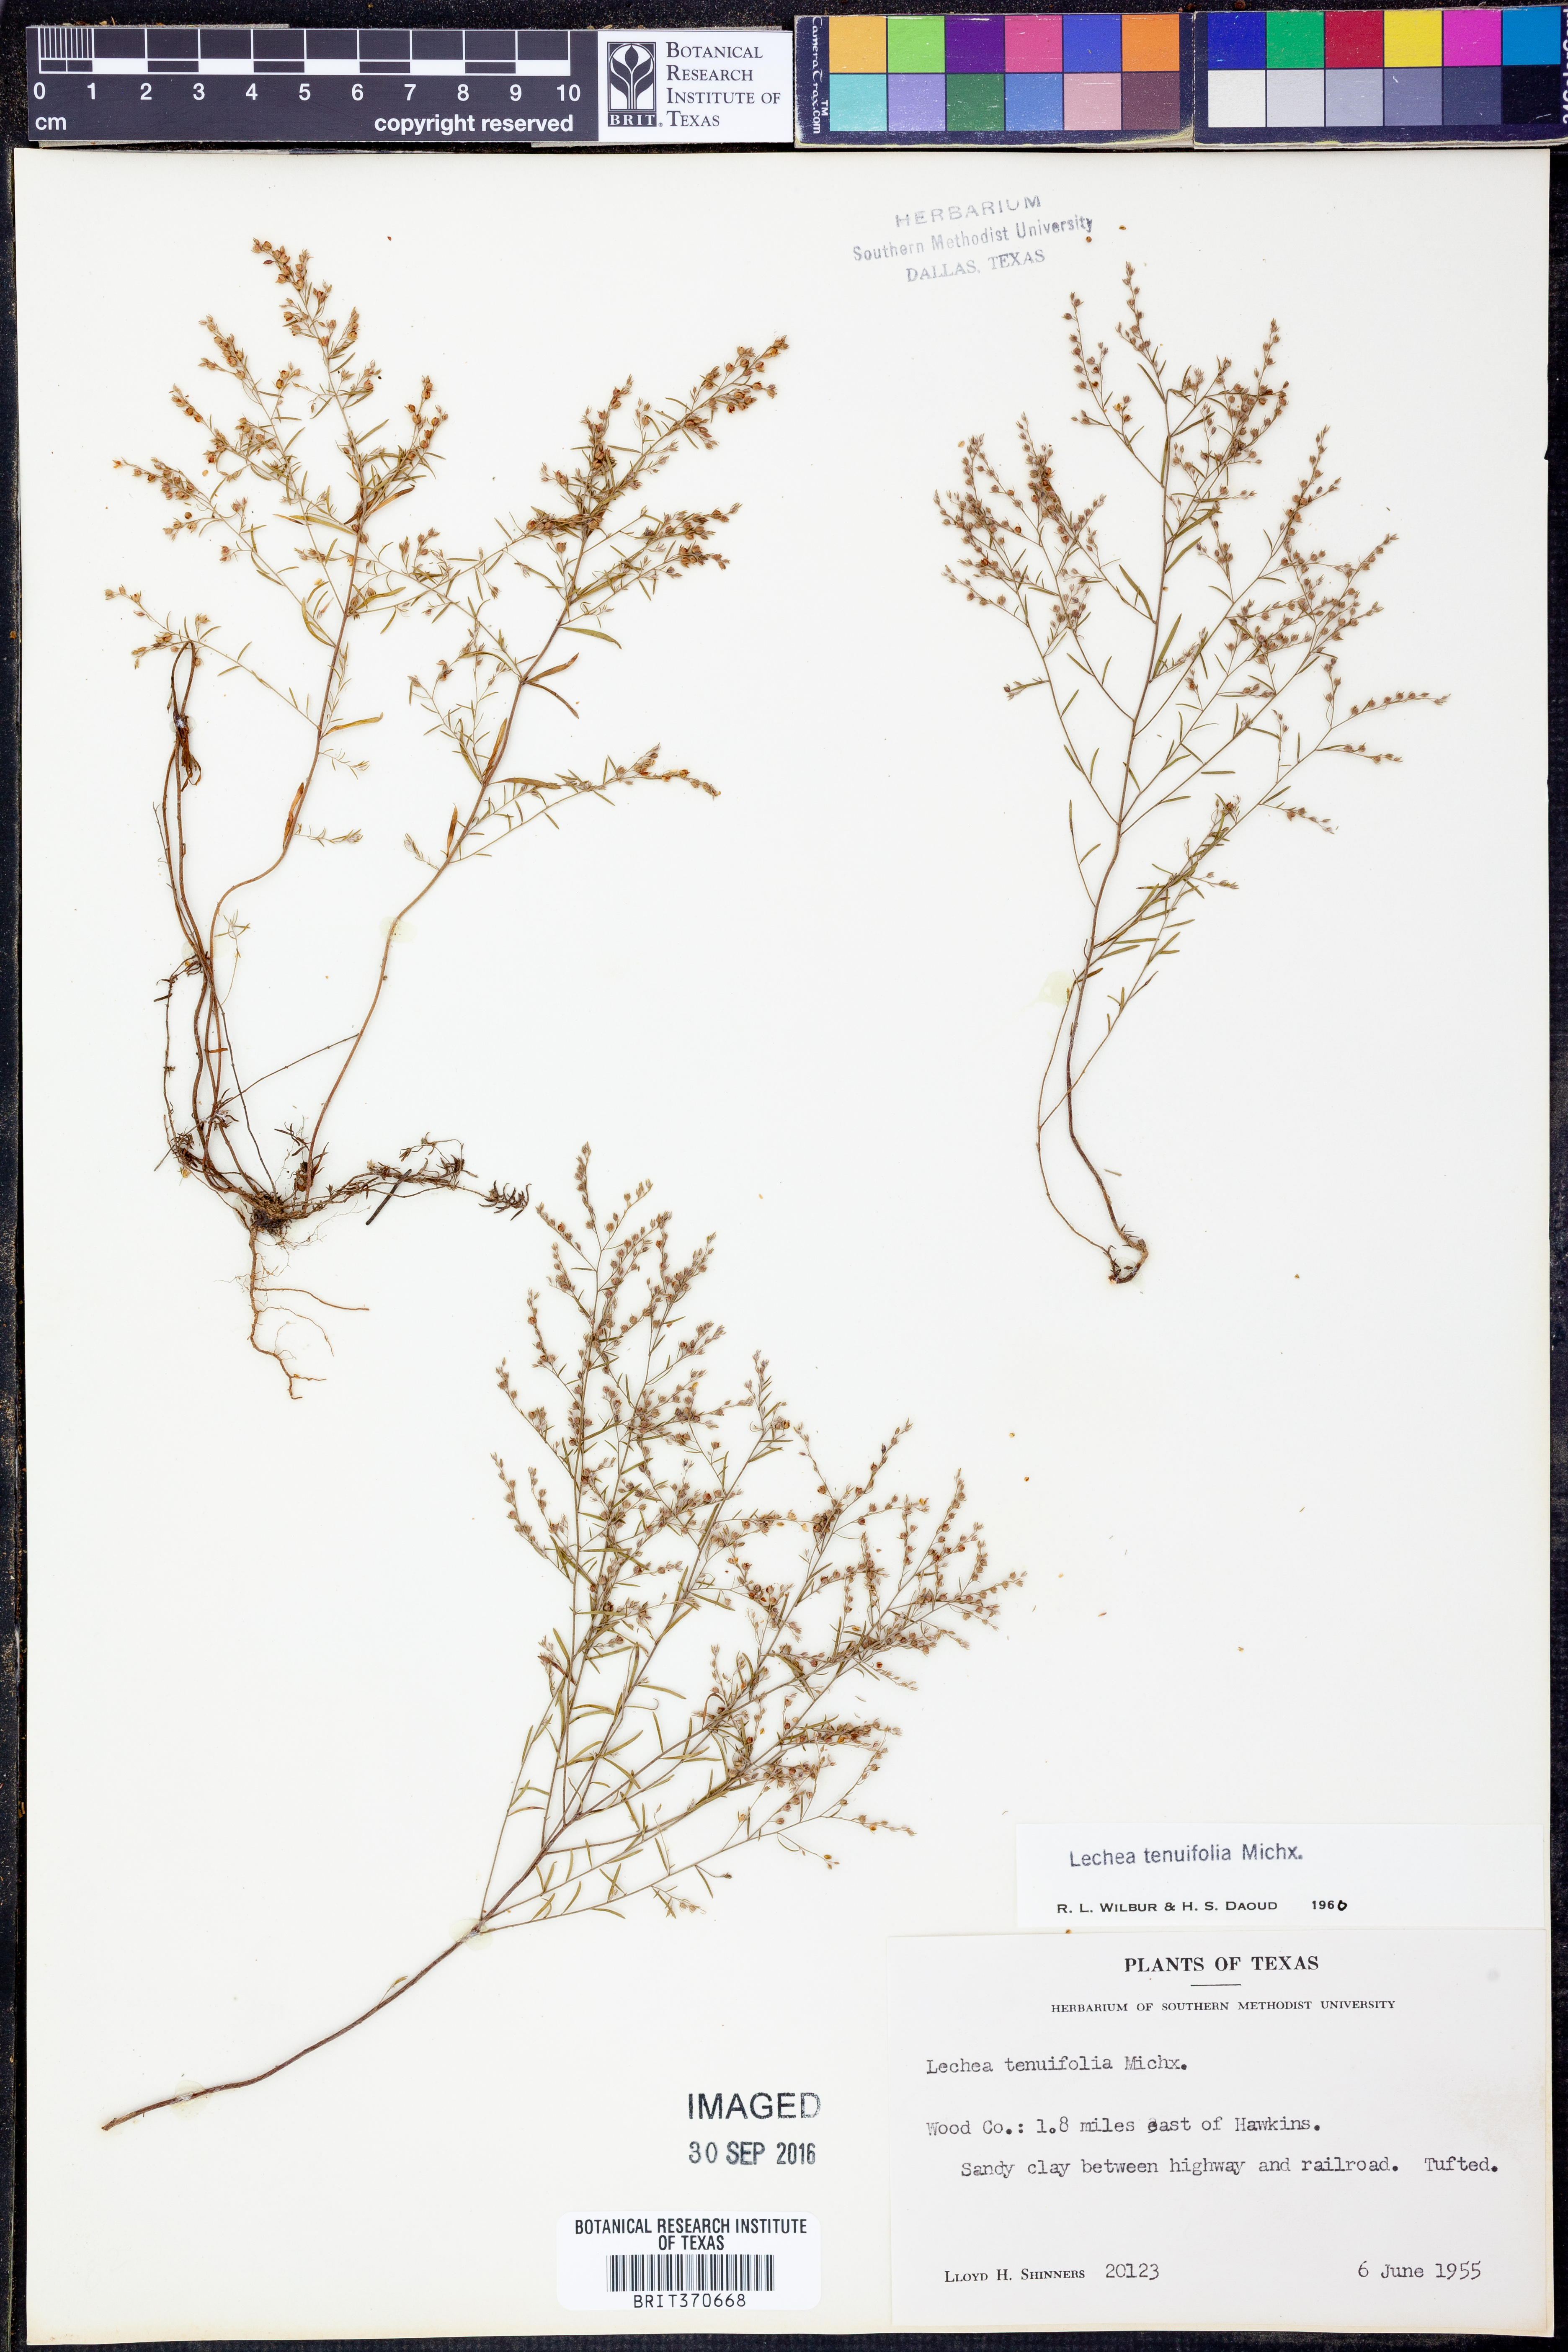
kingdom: Plantae
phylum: Tracheophyta
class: Magnoliopsida
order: Malvales
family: Cistaceae
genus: Lechea
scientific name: Lechea tenuifolia
